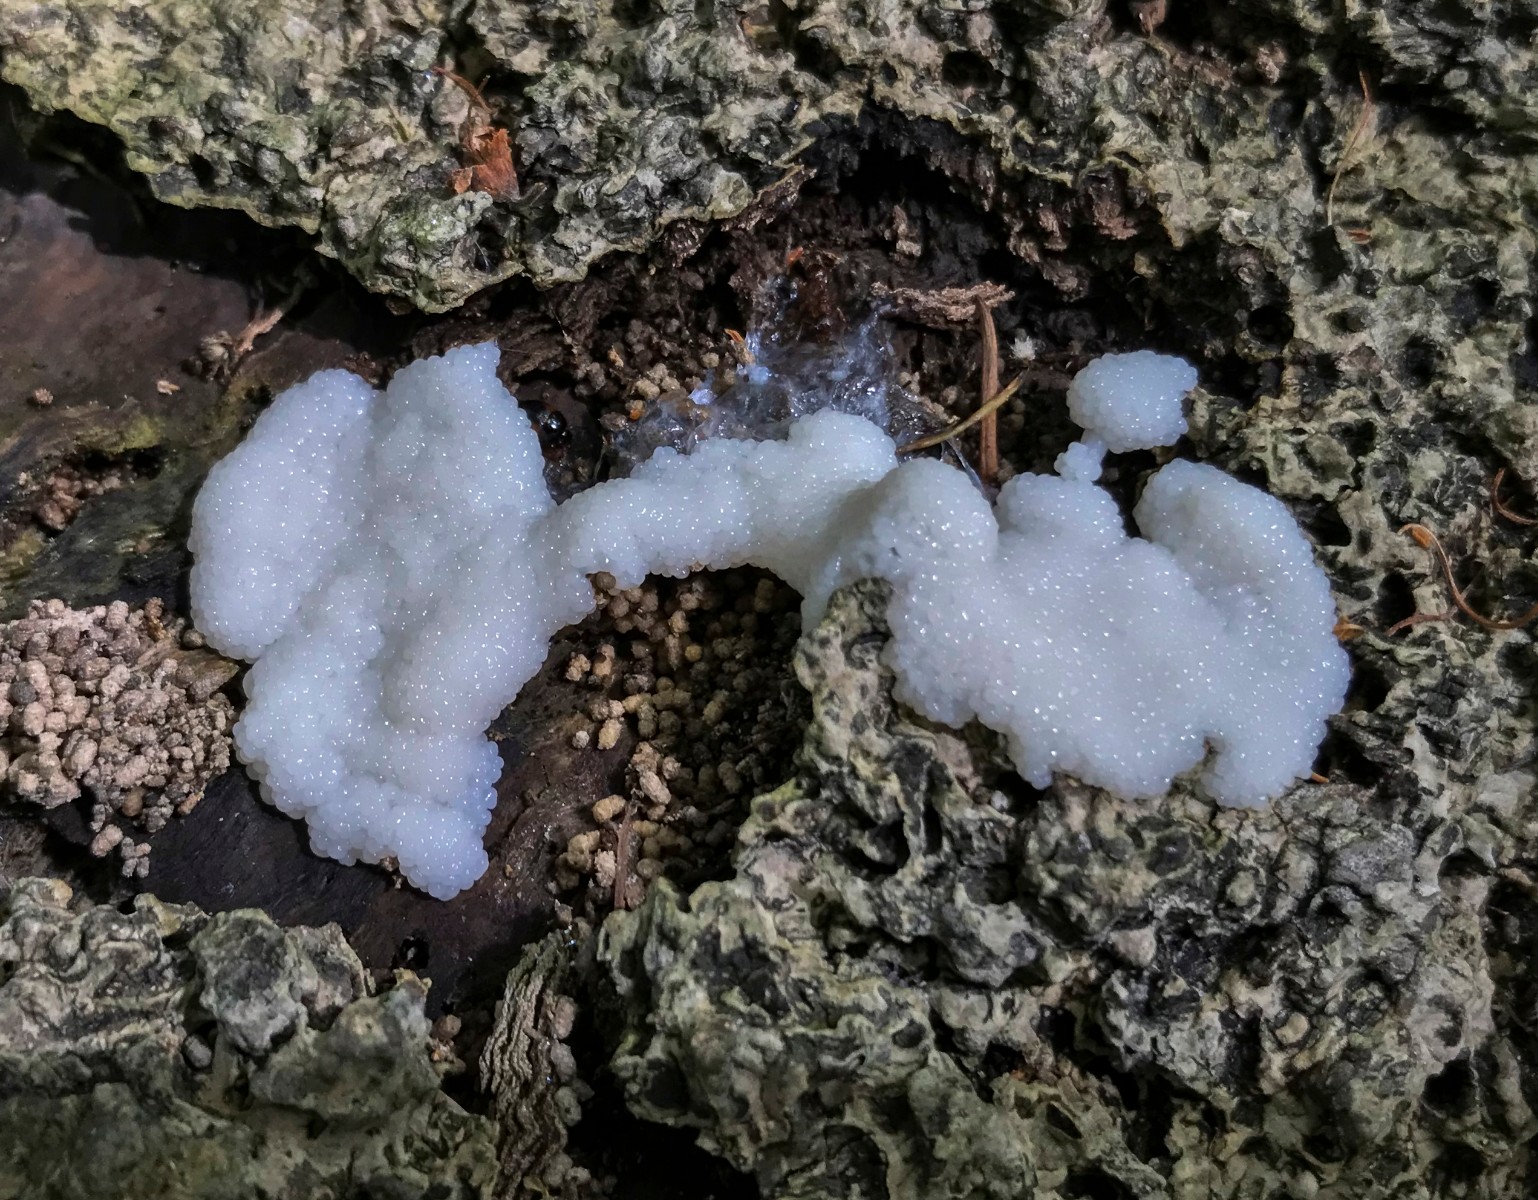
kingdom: Protozoa
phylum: Mycetozoa
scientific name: Mycetozoa
